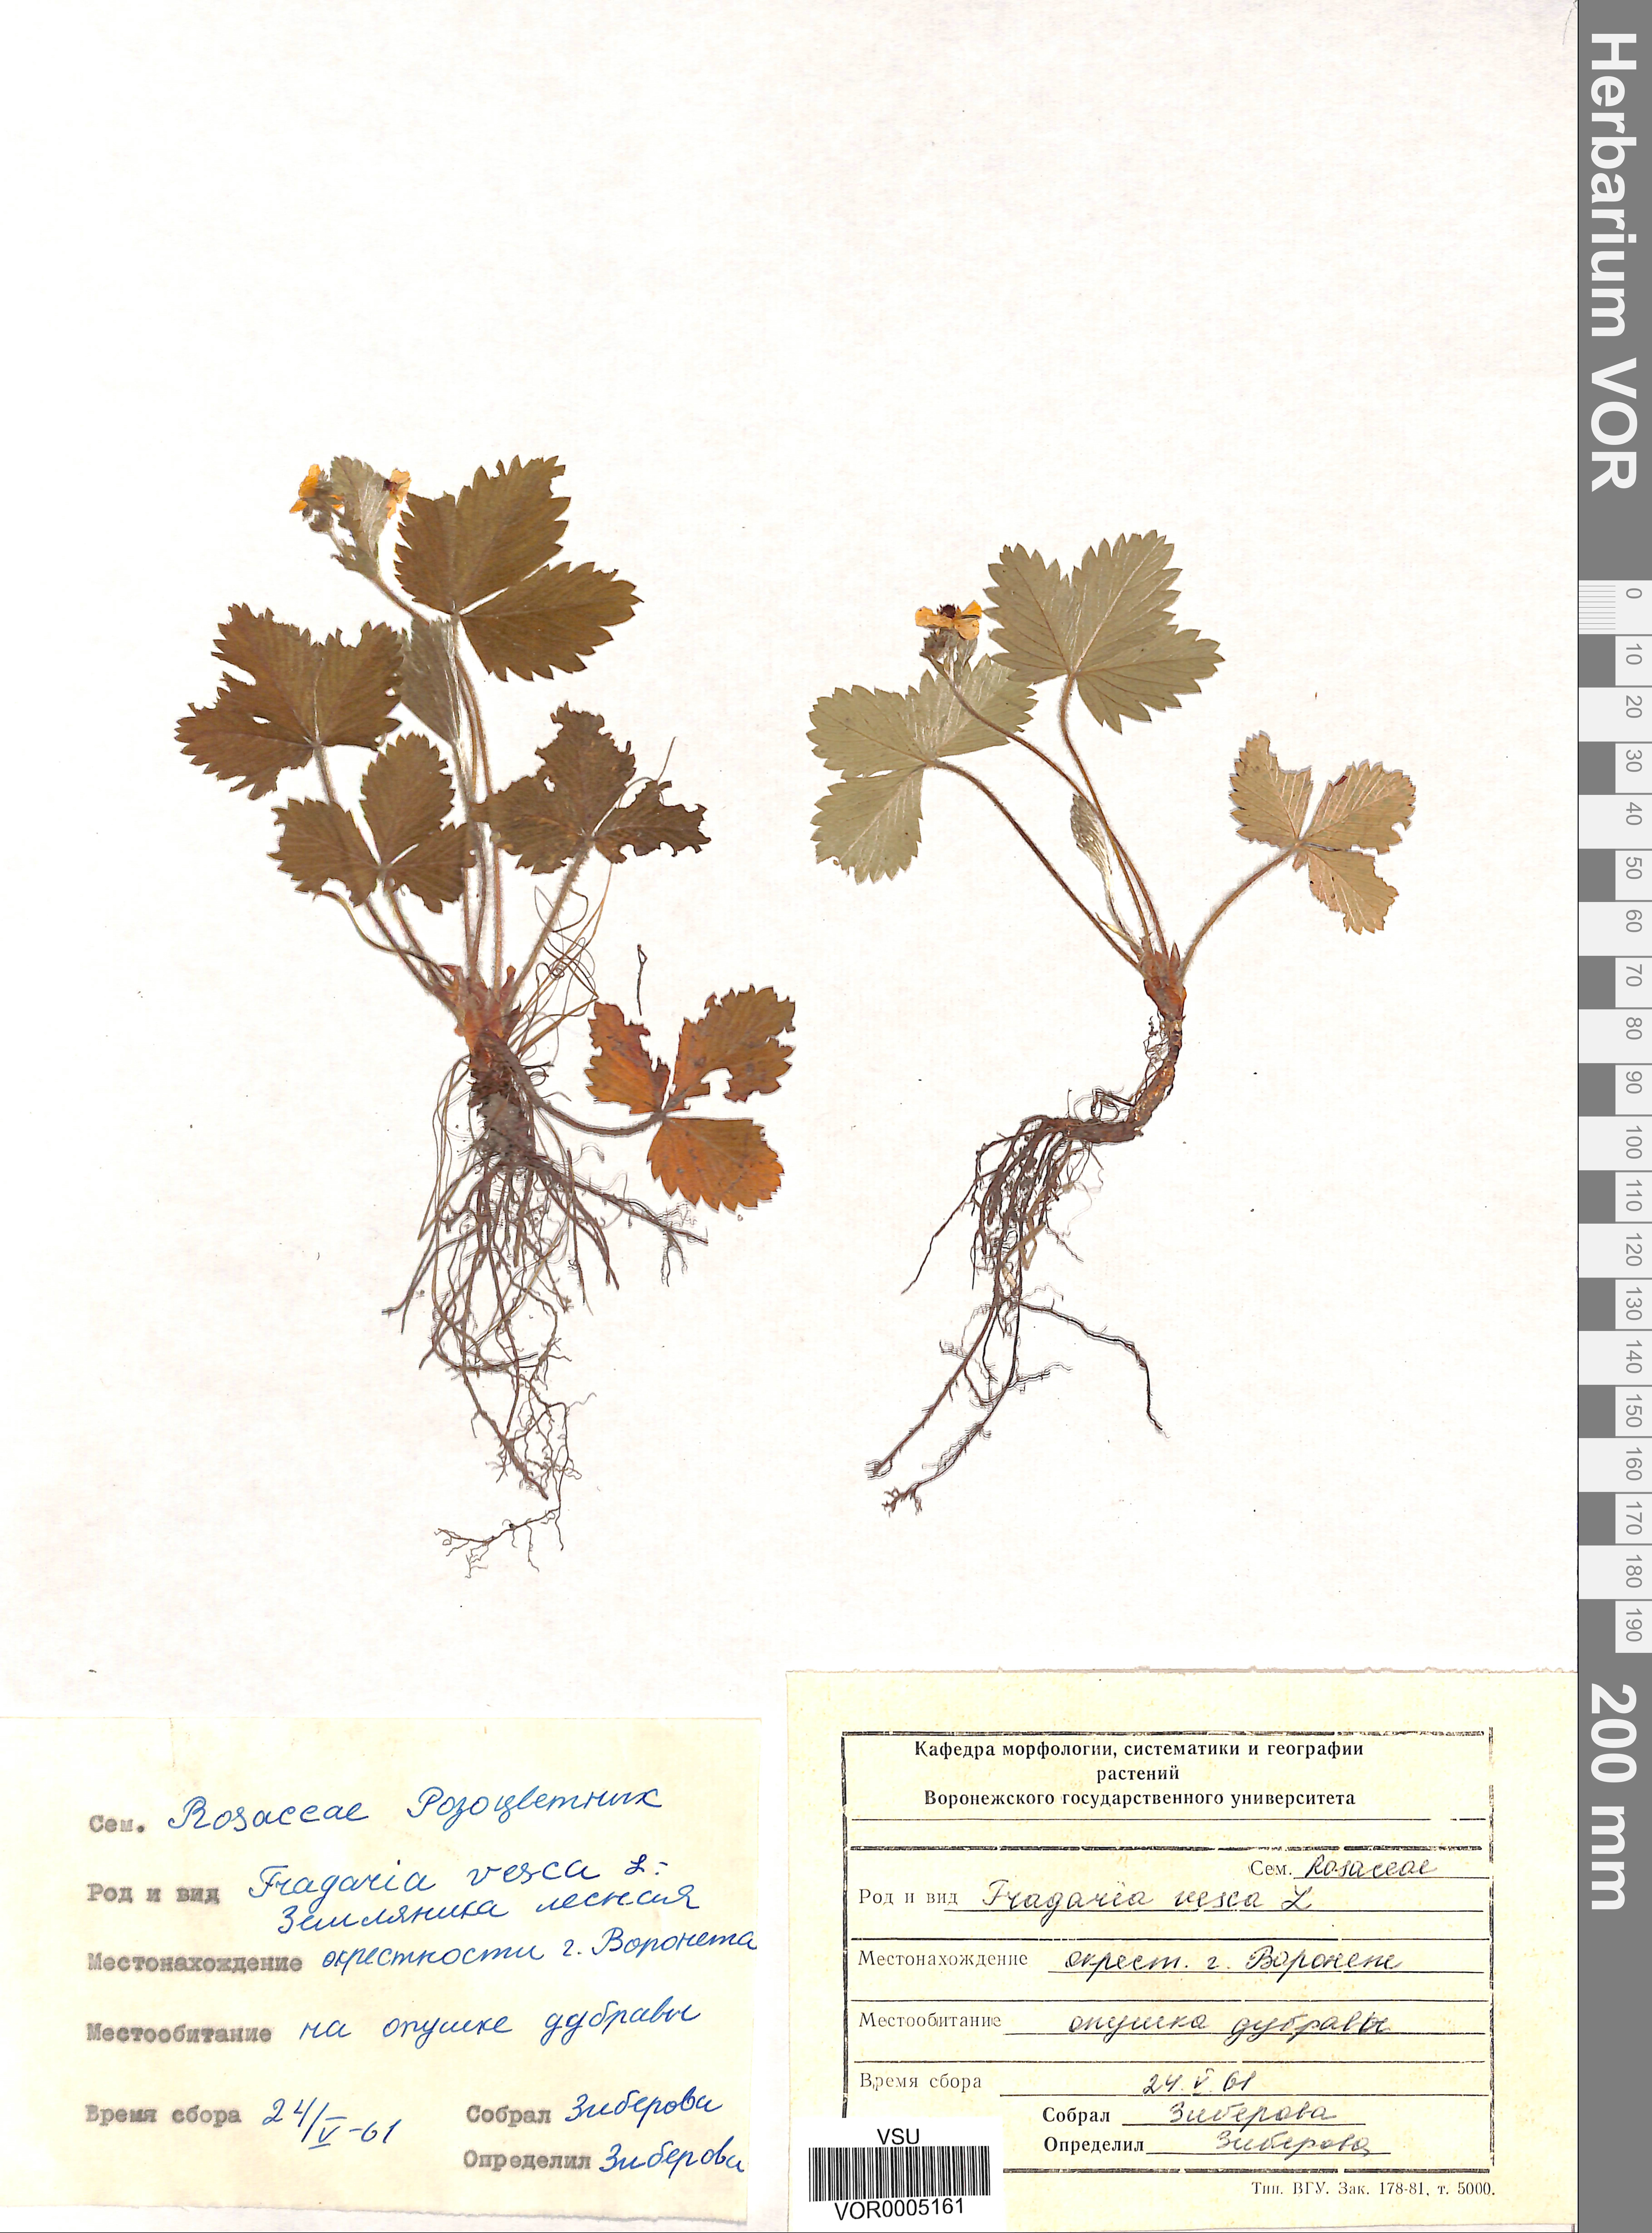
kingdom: Plantae
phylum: Tracheophyta
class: Magnoliopsida
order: Rosales
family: Rosaceae
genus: Fragaria
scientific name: Fragaria vesca
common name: Wild strawberry
